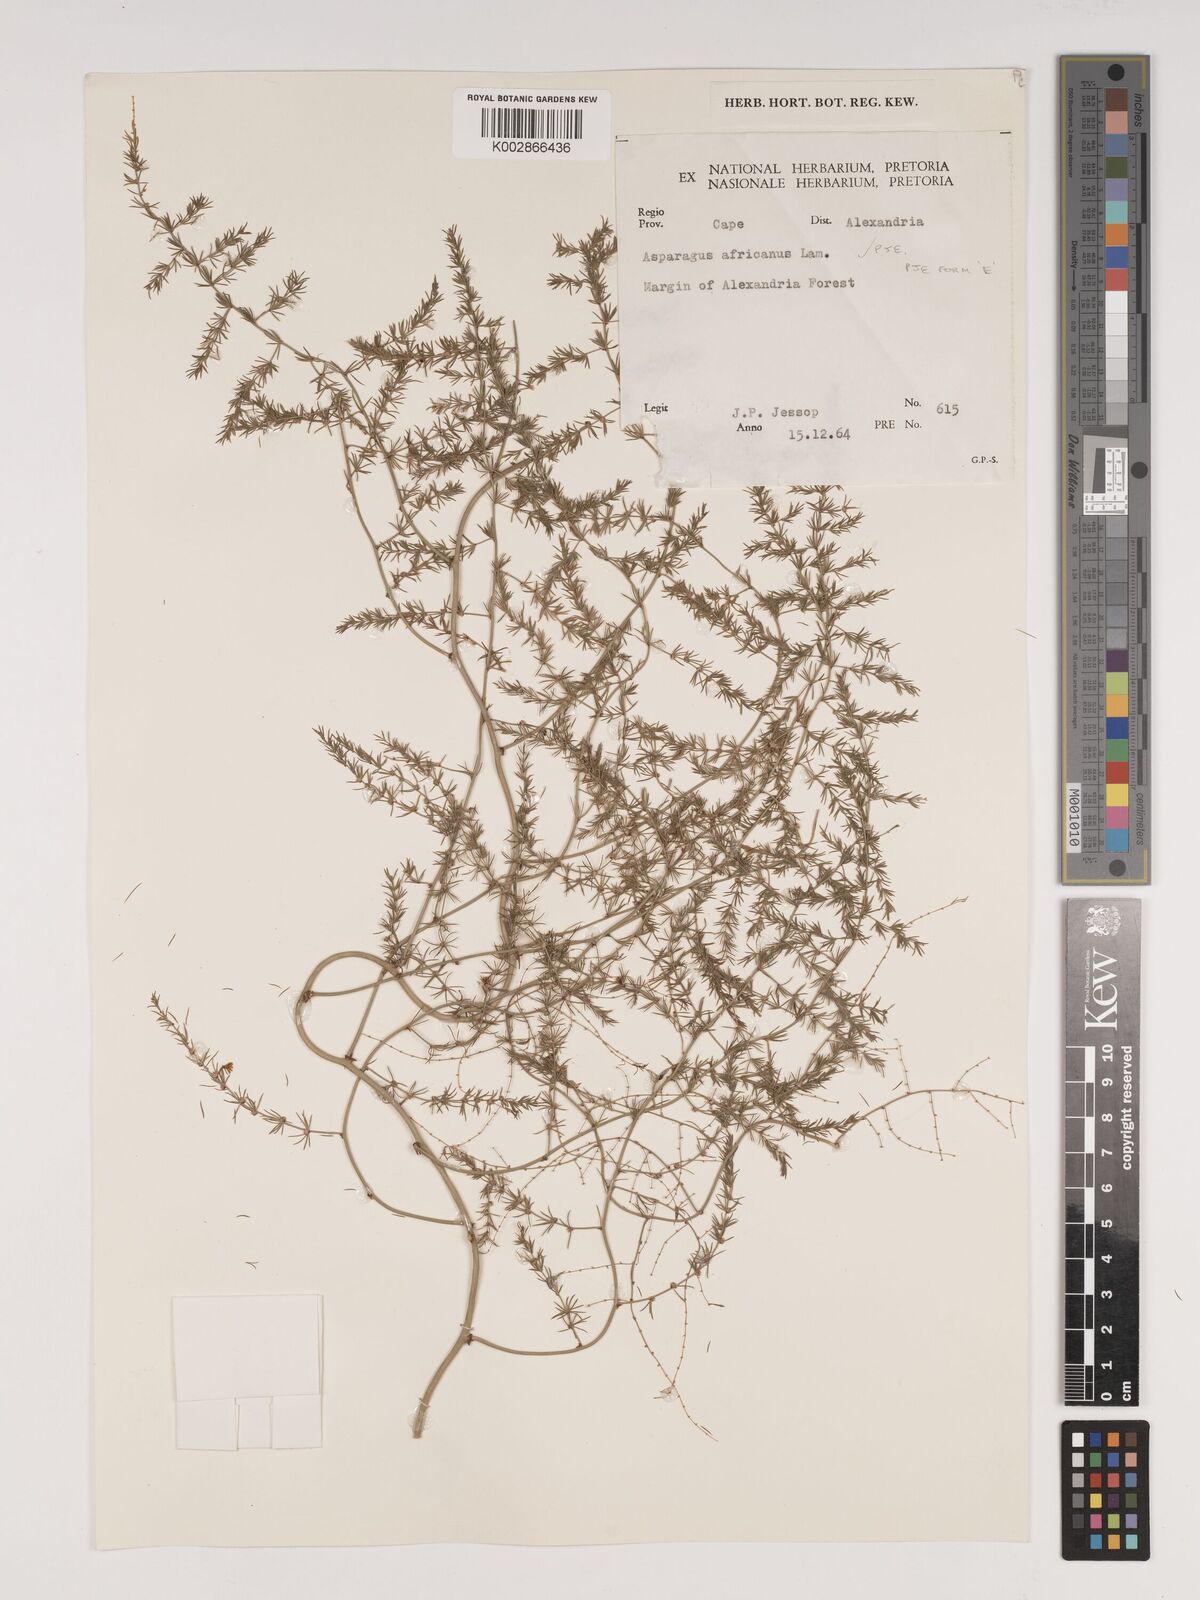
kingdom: Plantae
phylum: Tracheophyta
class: Liliopsida
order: Asparagales
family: Asparagaceae
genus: Asparagus
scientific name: Asparagus africanus
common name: Asparagus-fern
